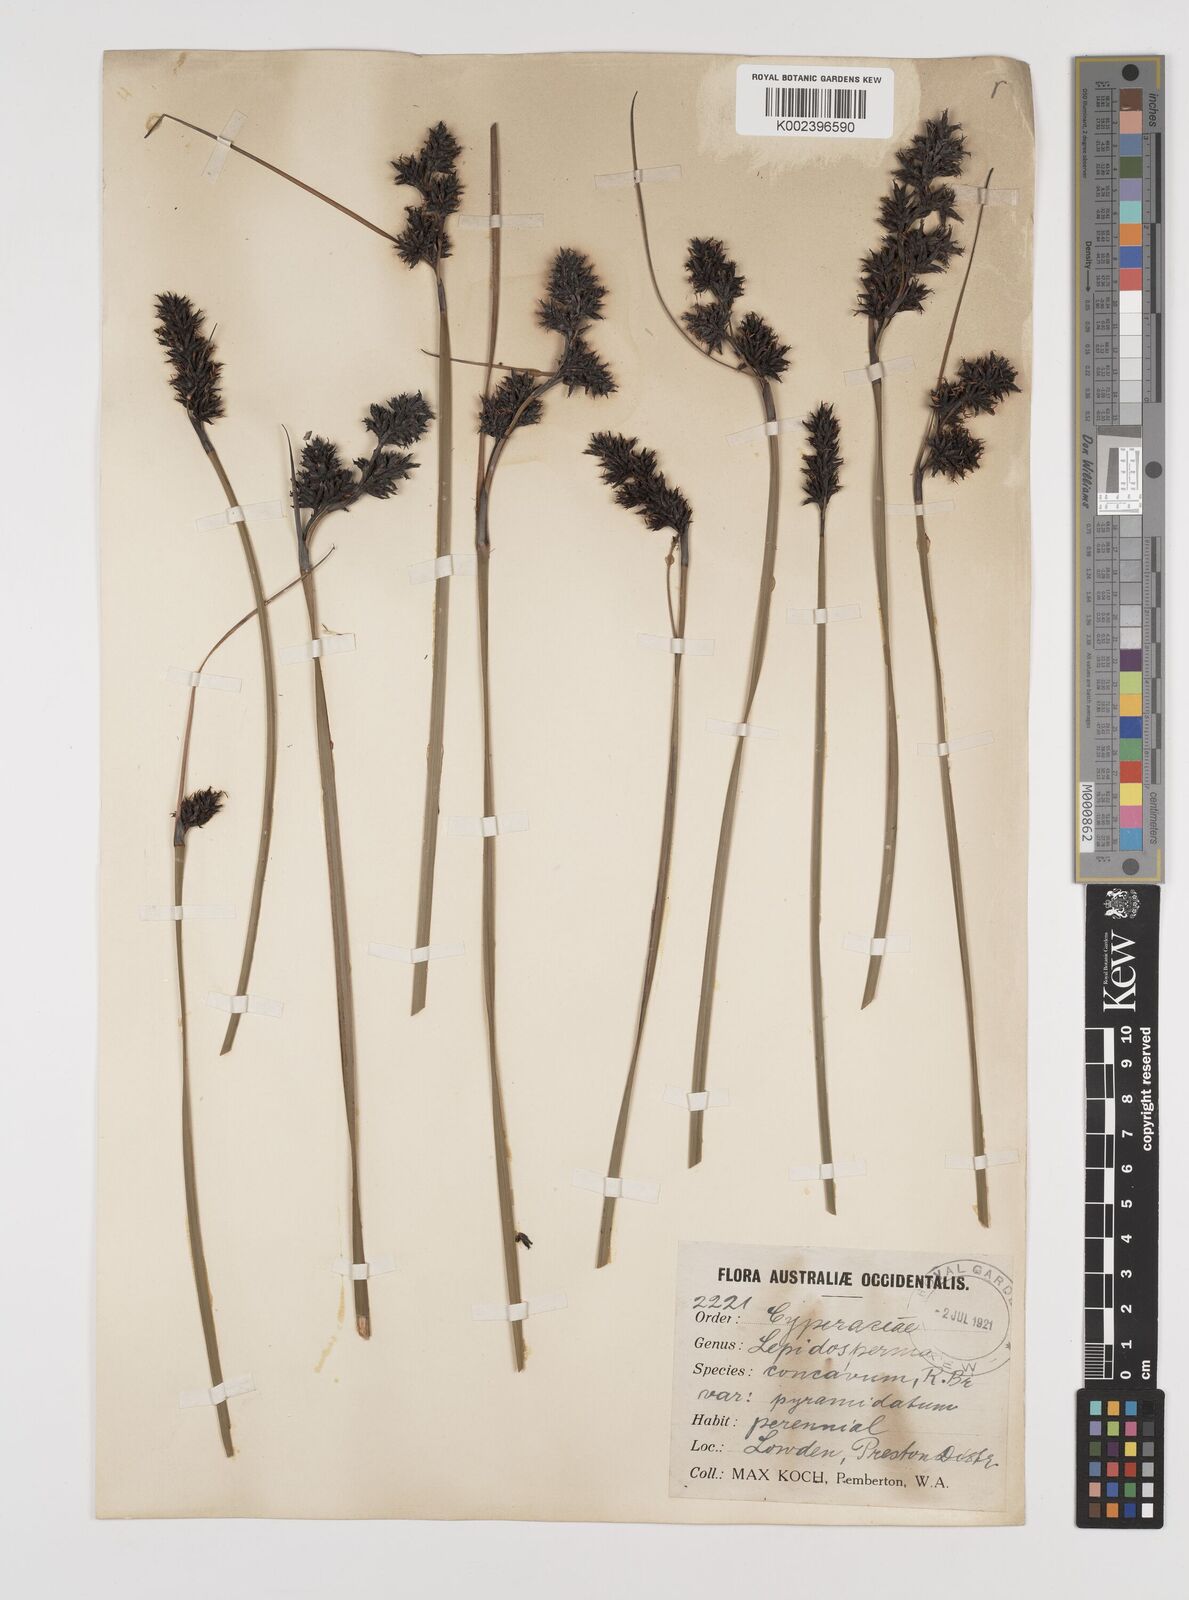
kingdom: Plantae
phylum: Tracheophyta
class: Liliopsida
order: Poales
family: Cyperaceae
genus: Lepidosperma
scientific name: Lepidosperma sieberi
